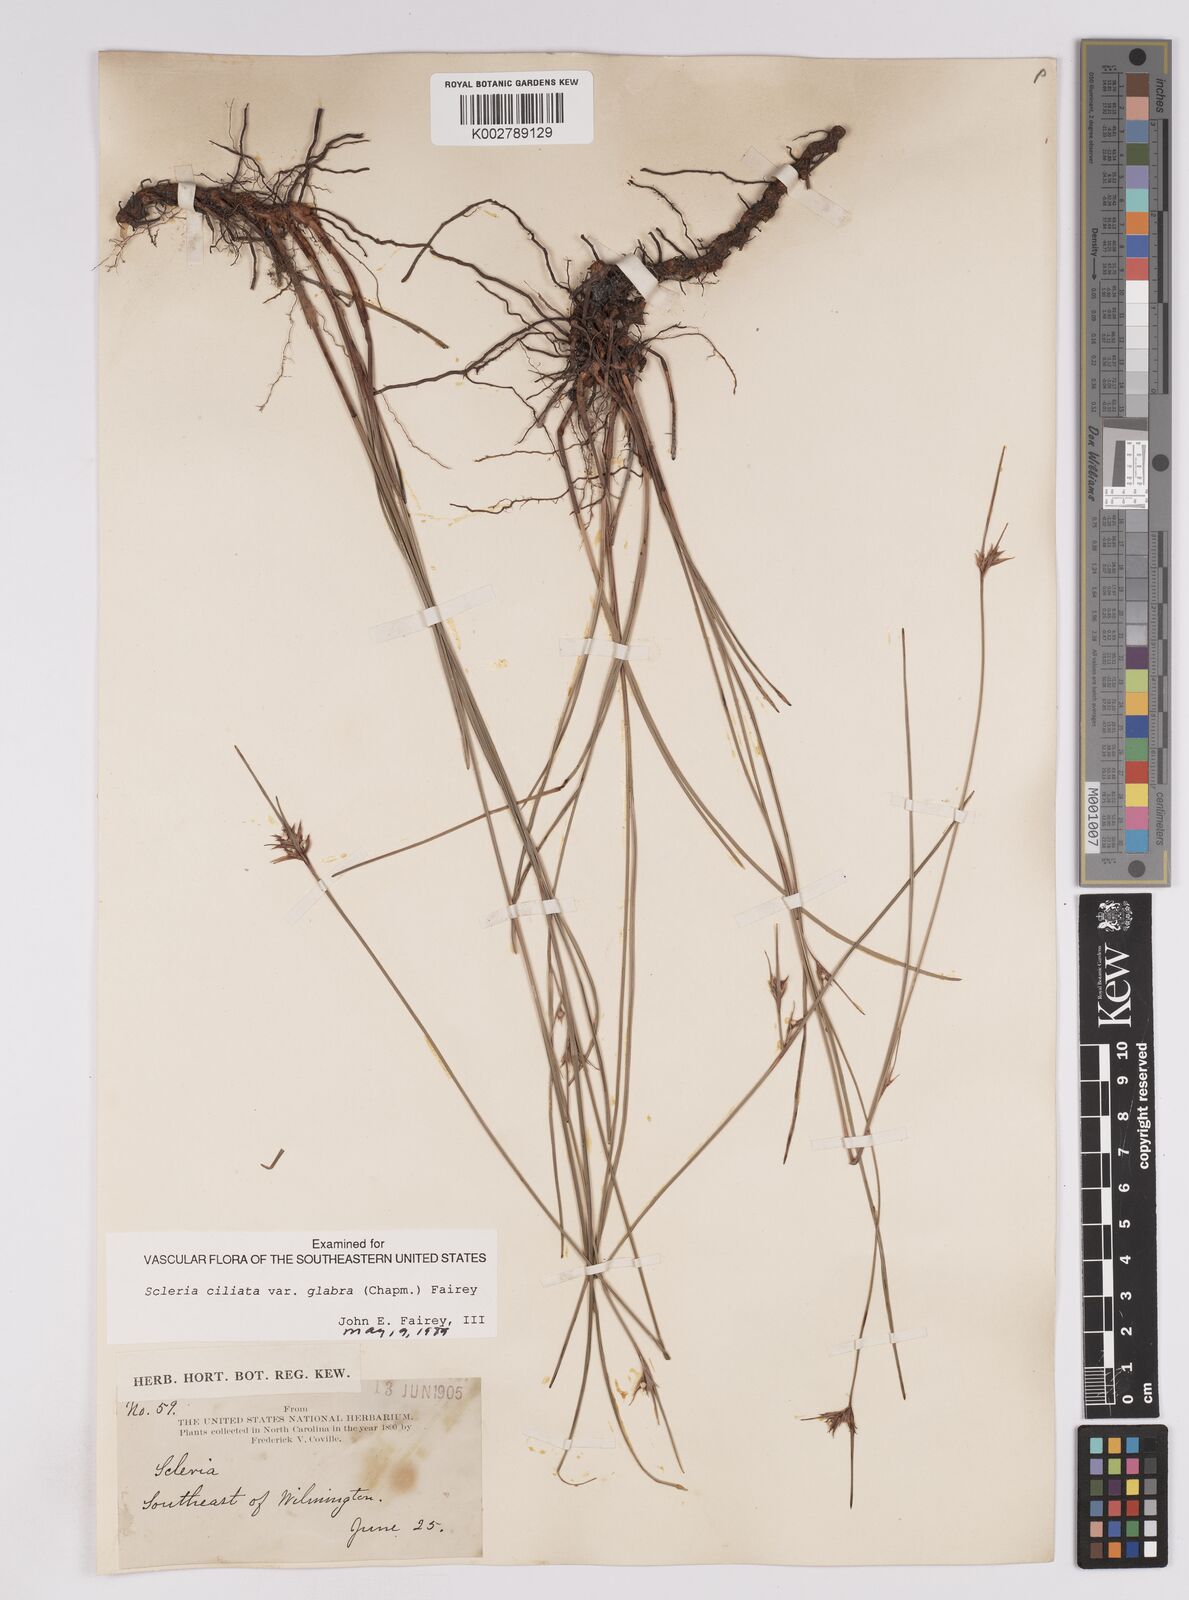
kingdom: Plantae
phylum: Tracheophyta
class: Liliopsida
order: Poales
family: Cyperaceae
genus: Scleria
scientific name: Scleria
